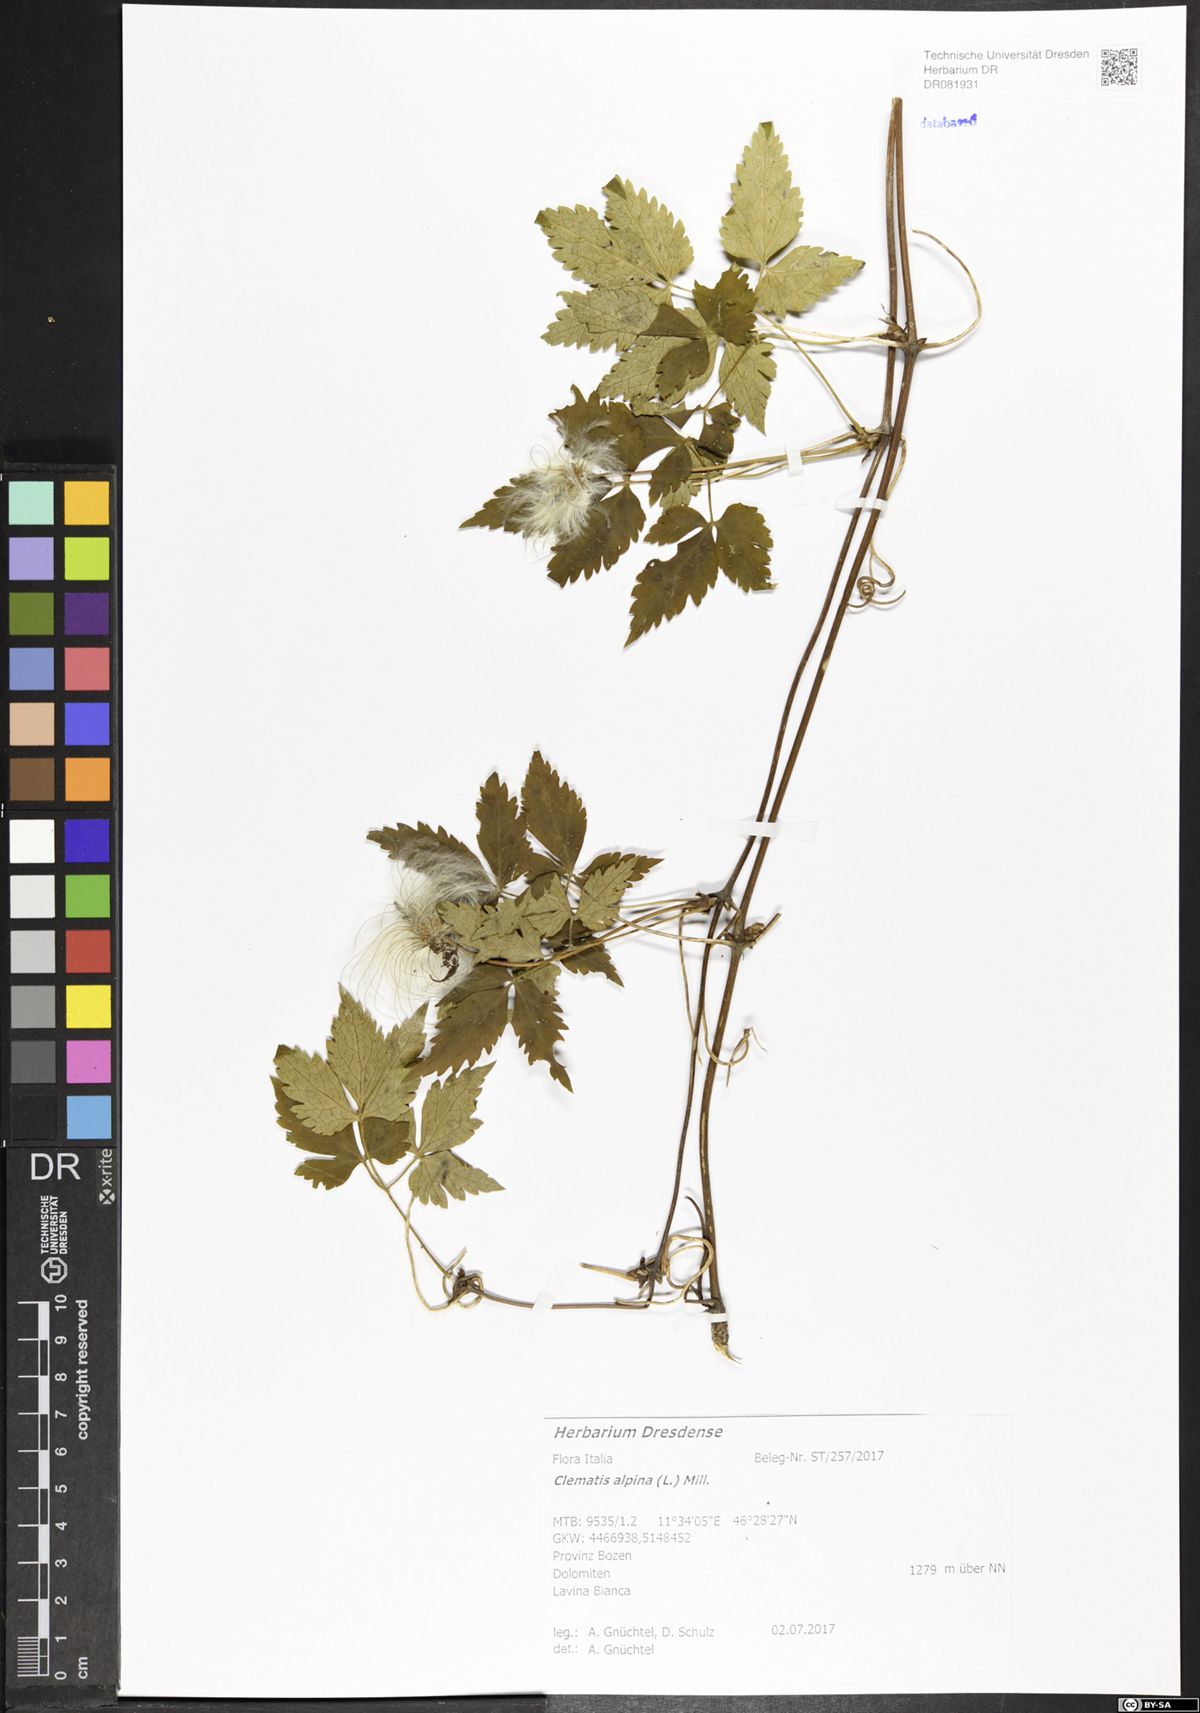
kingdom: Plantae
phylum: Tracheophyta
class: Magnoliopsida
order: Ranunculales
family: Ranunculaceae
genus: Clematis
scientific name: Clematis alpina
